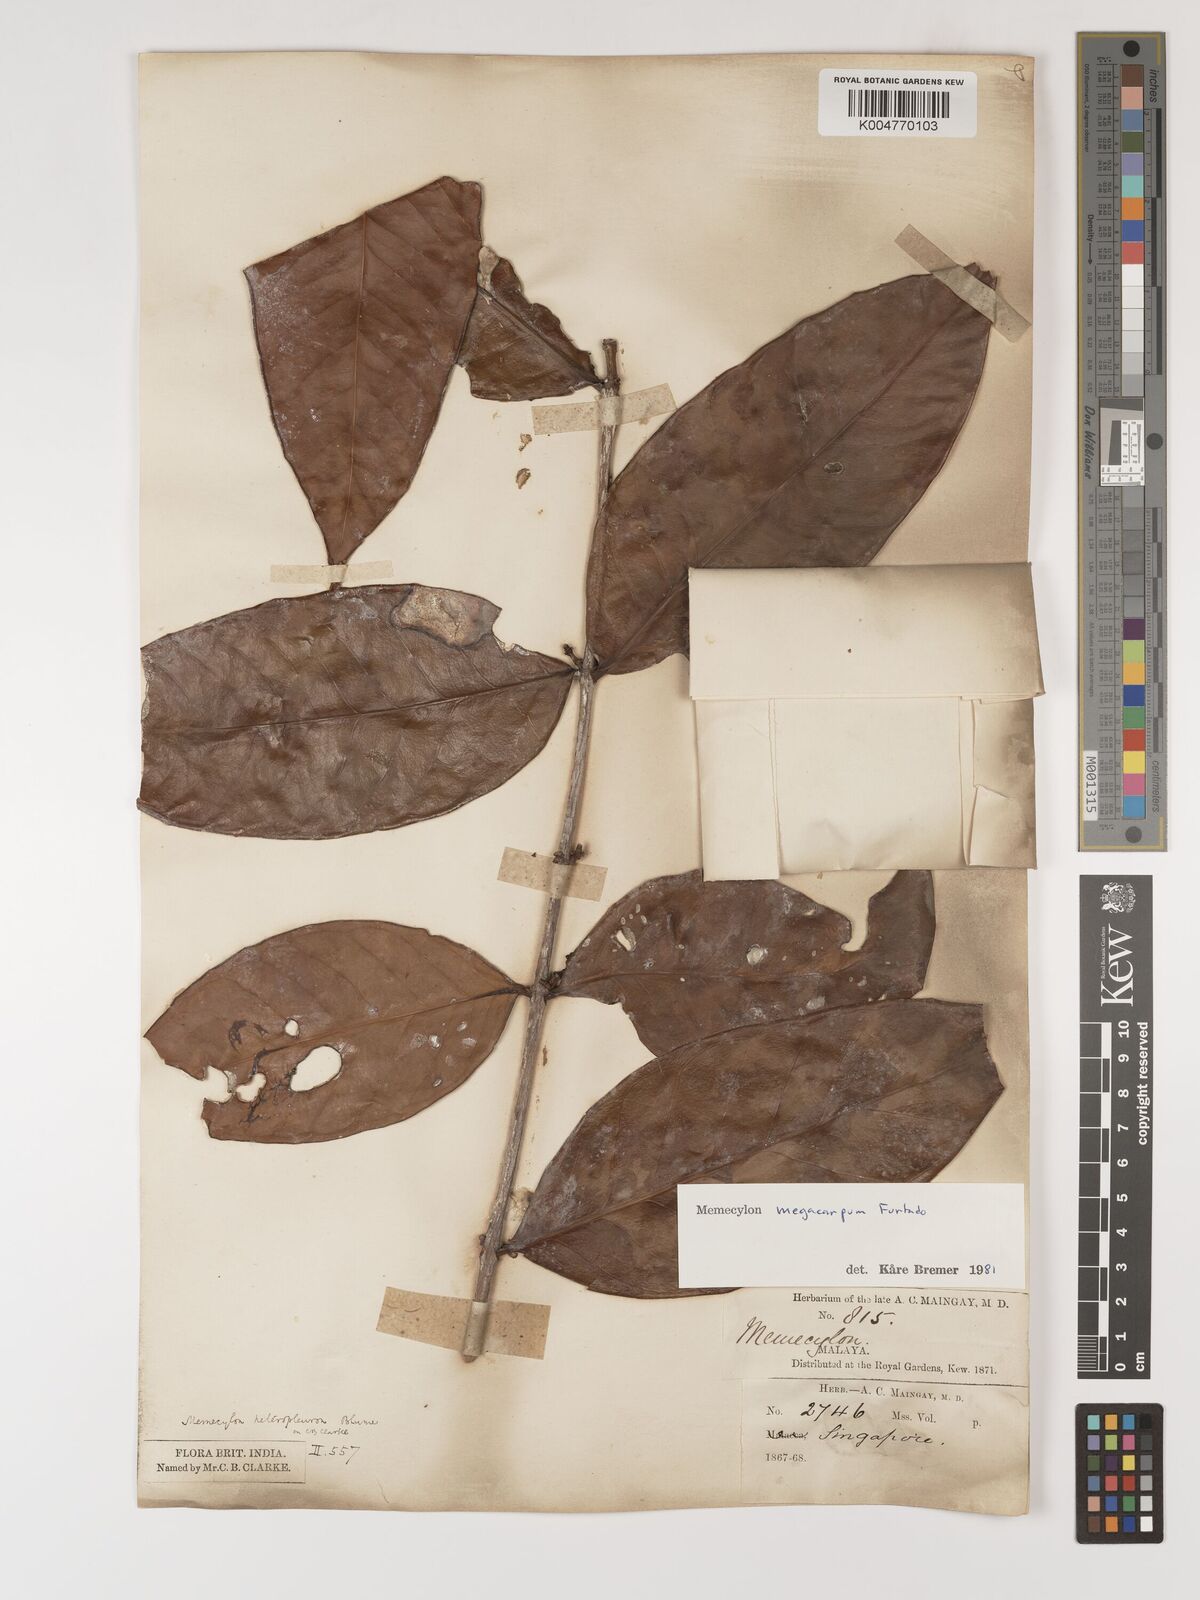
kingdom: Plantae
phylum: Tracheophyta
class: Magnoliopsida
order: Myrtales
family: Melastomataceae
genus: Memecylon
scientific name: Memecylon megacarpum
